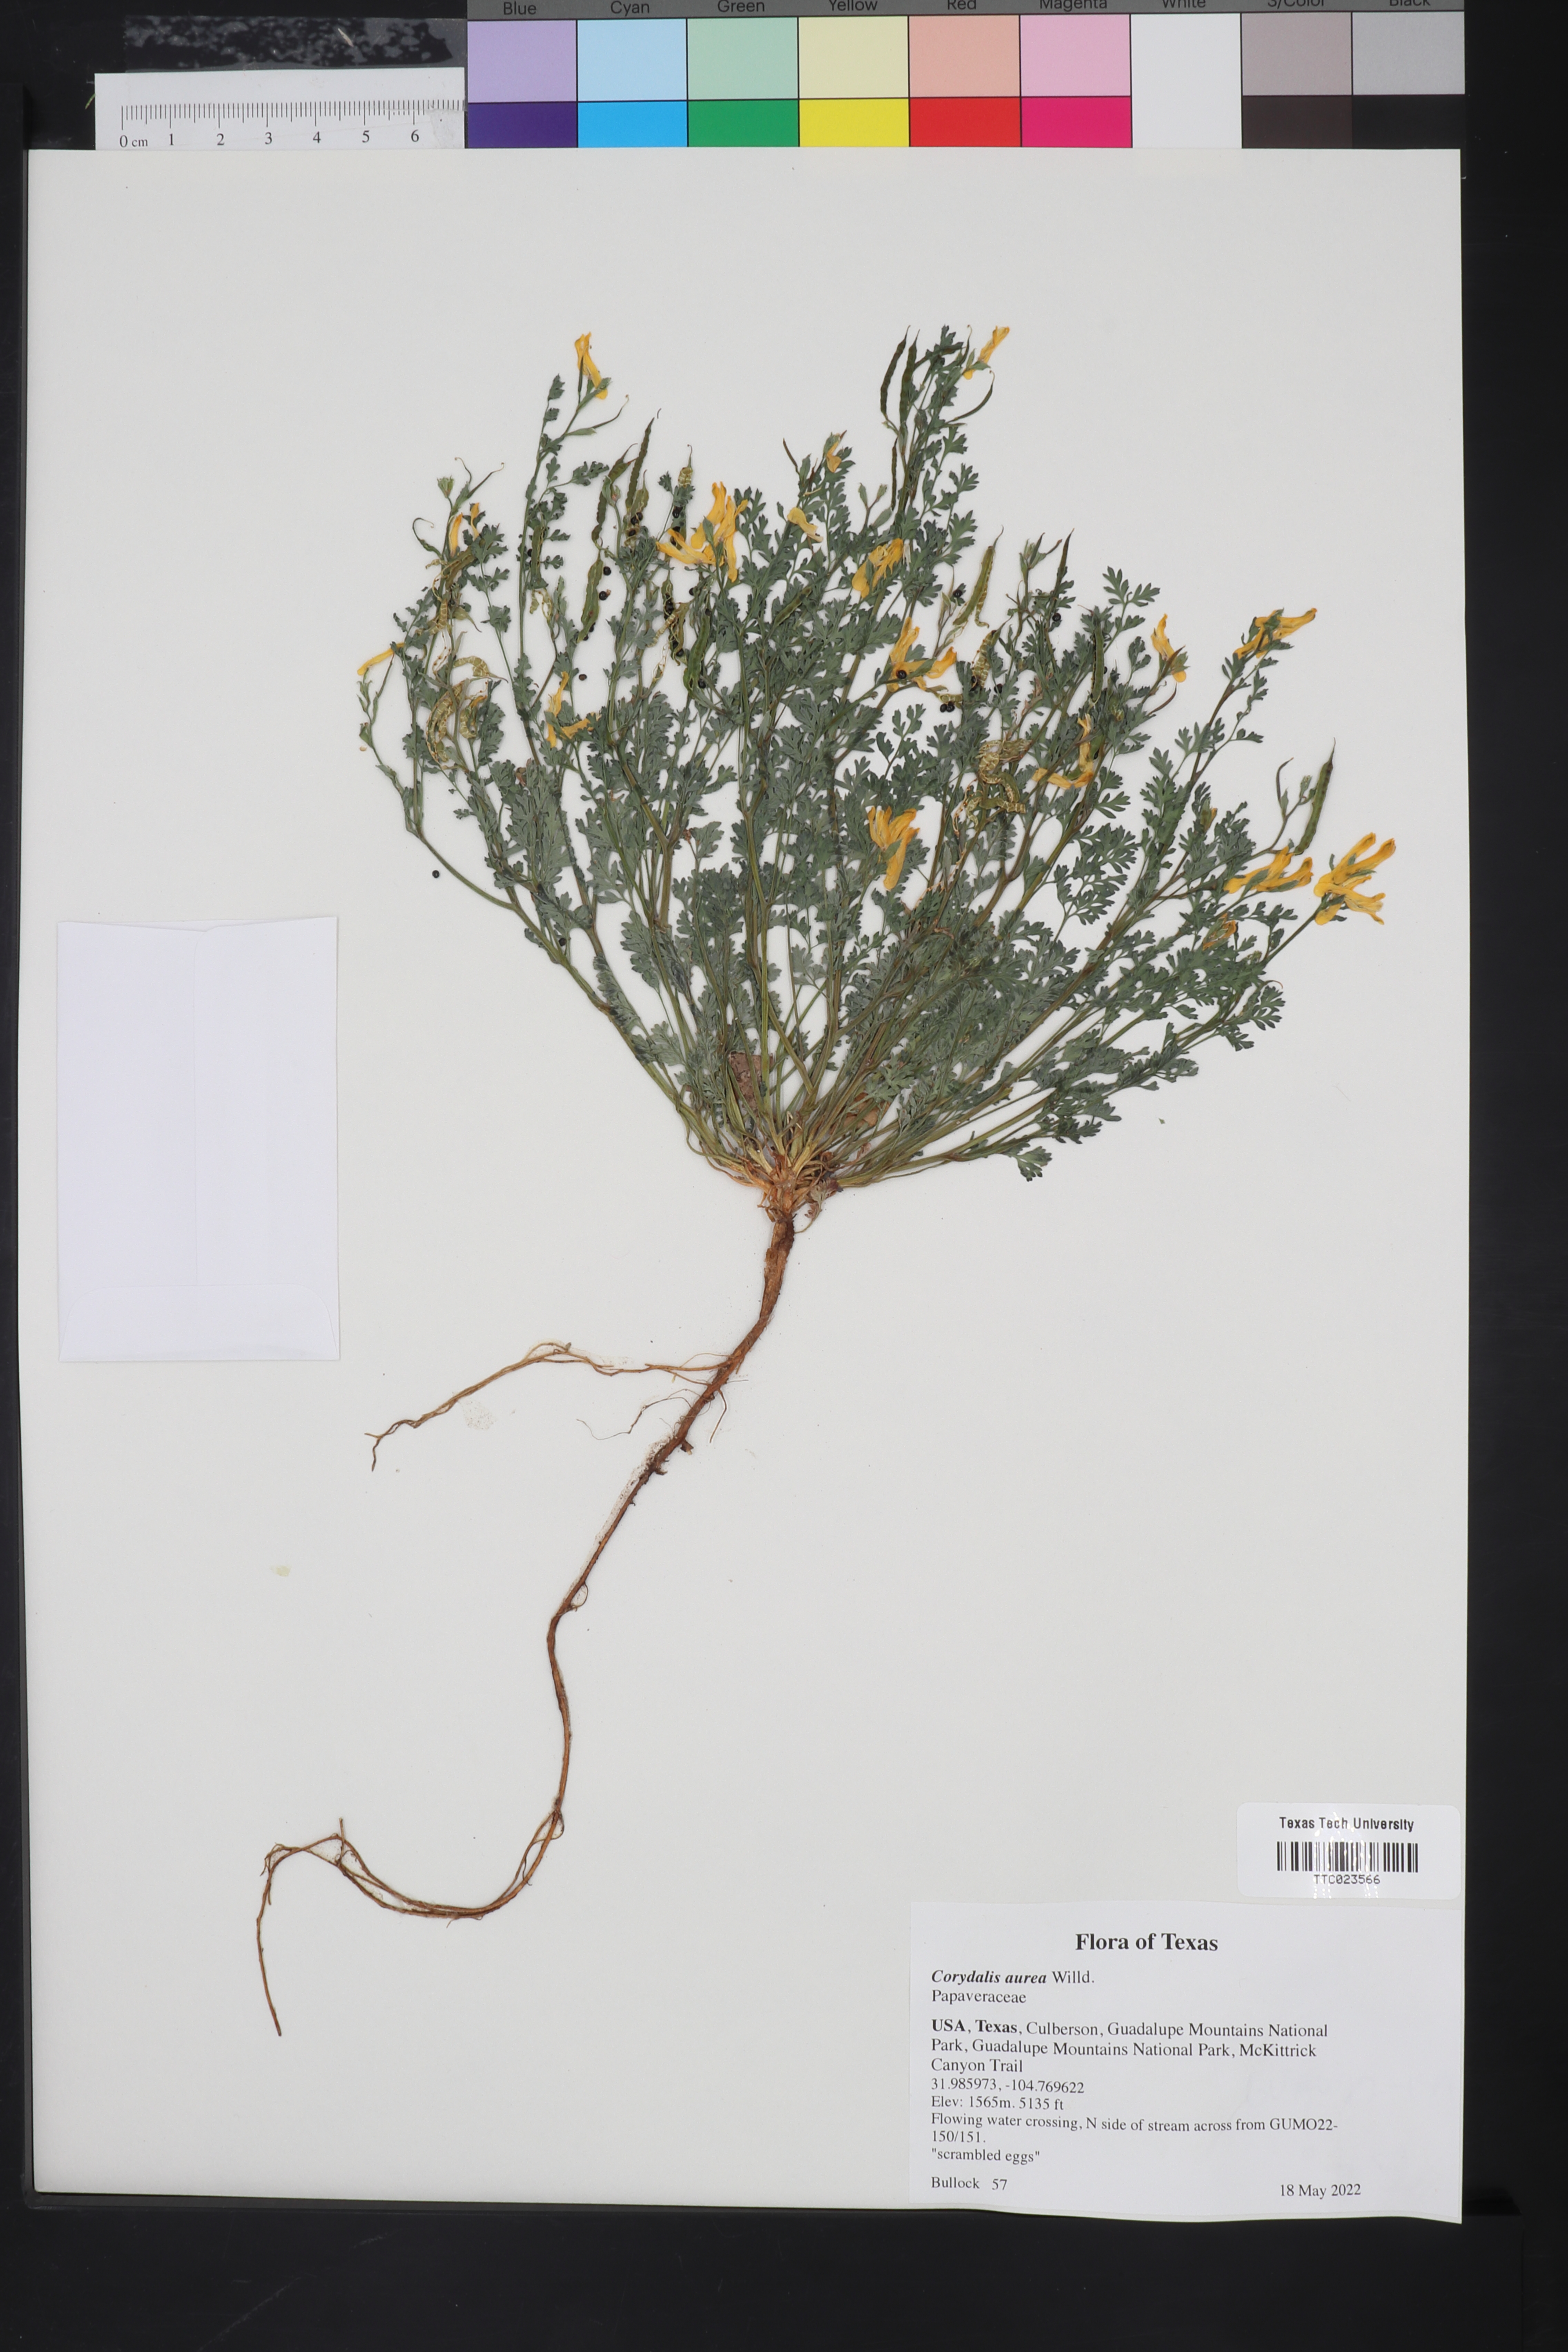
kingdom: Plantae
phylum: Tracheophyta
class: Magnoliopsida
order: Ranunculales
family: Papaveraceae
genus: Corydalis
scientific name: Corydalis aurea
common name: Golden corydalis
